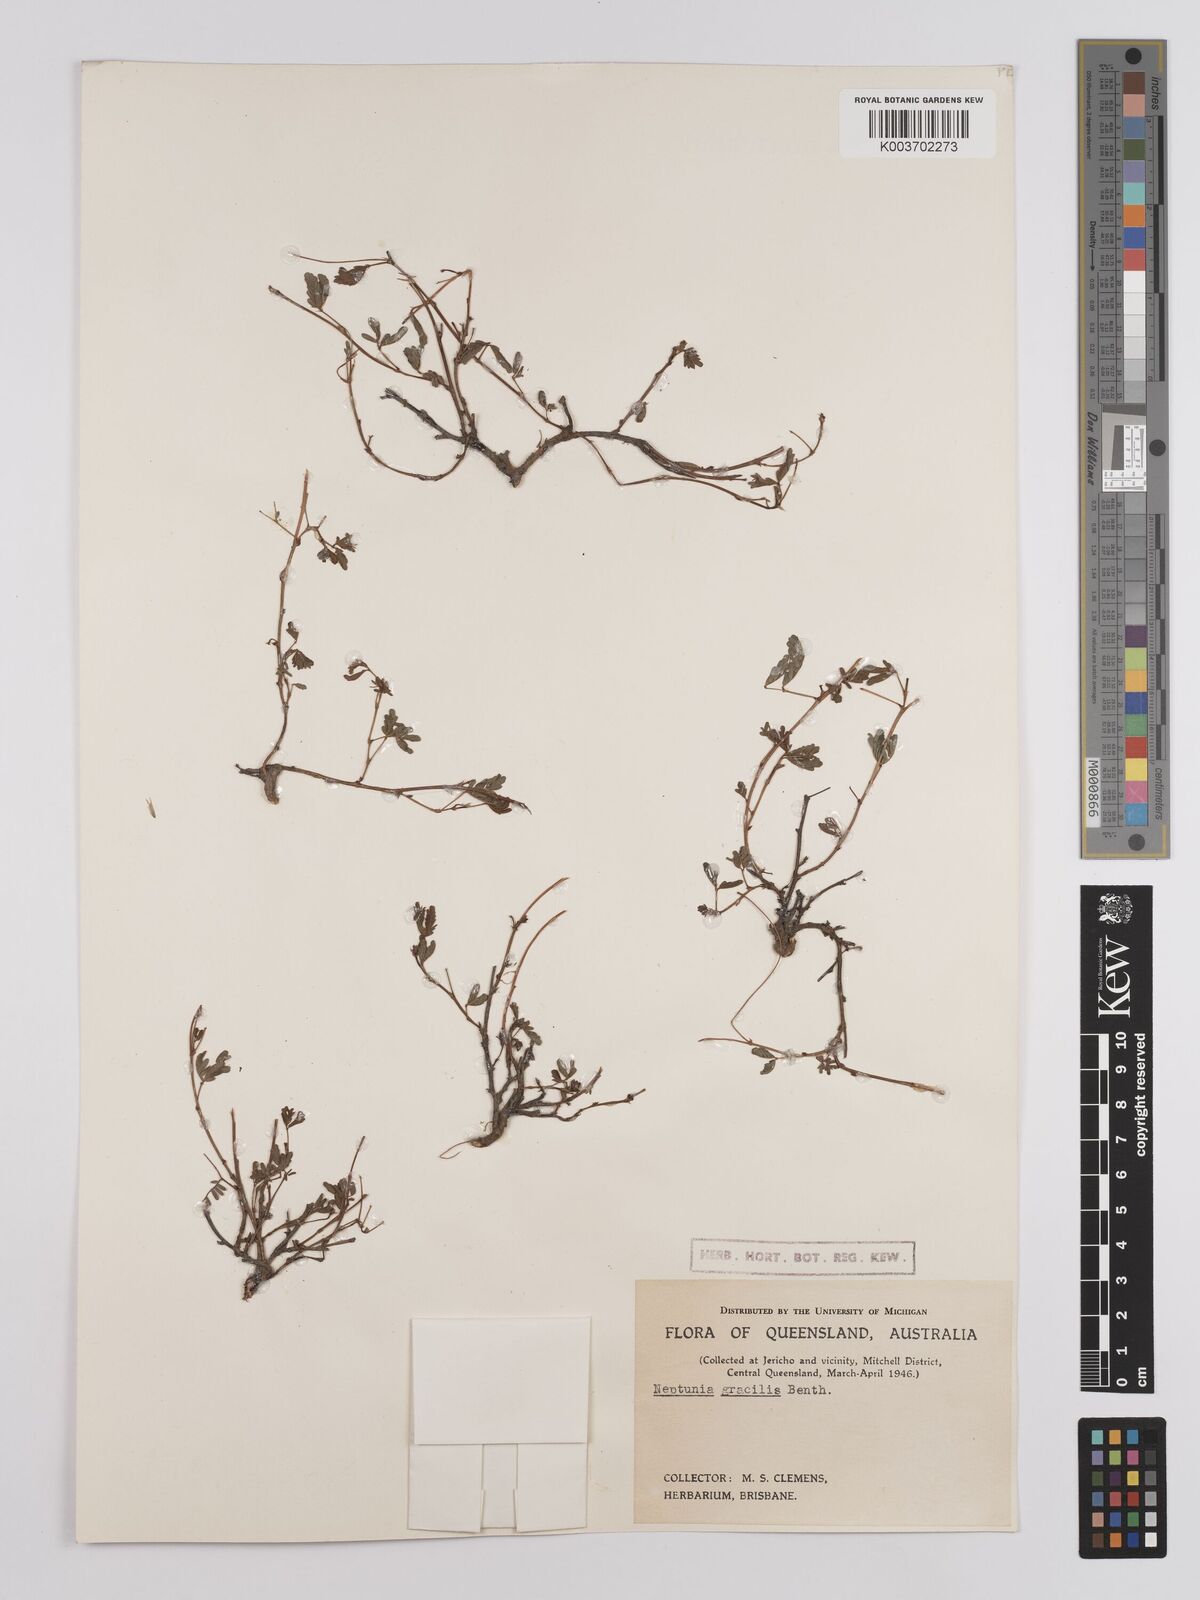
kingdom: Plantae
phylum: Tracheophyta
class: Magnoliopsida
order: Fabales
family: Fabaceae
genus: Neptunia
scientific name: Neptunia gracilis
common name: Sensitive-plant
